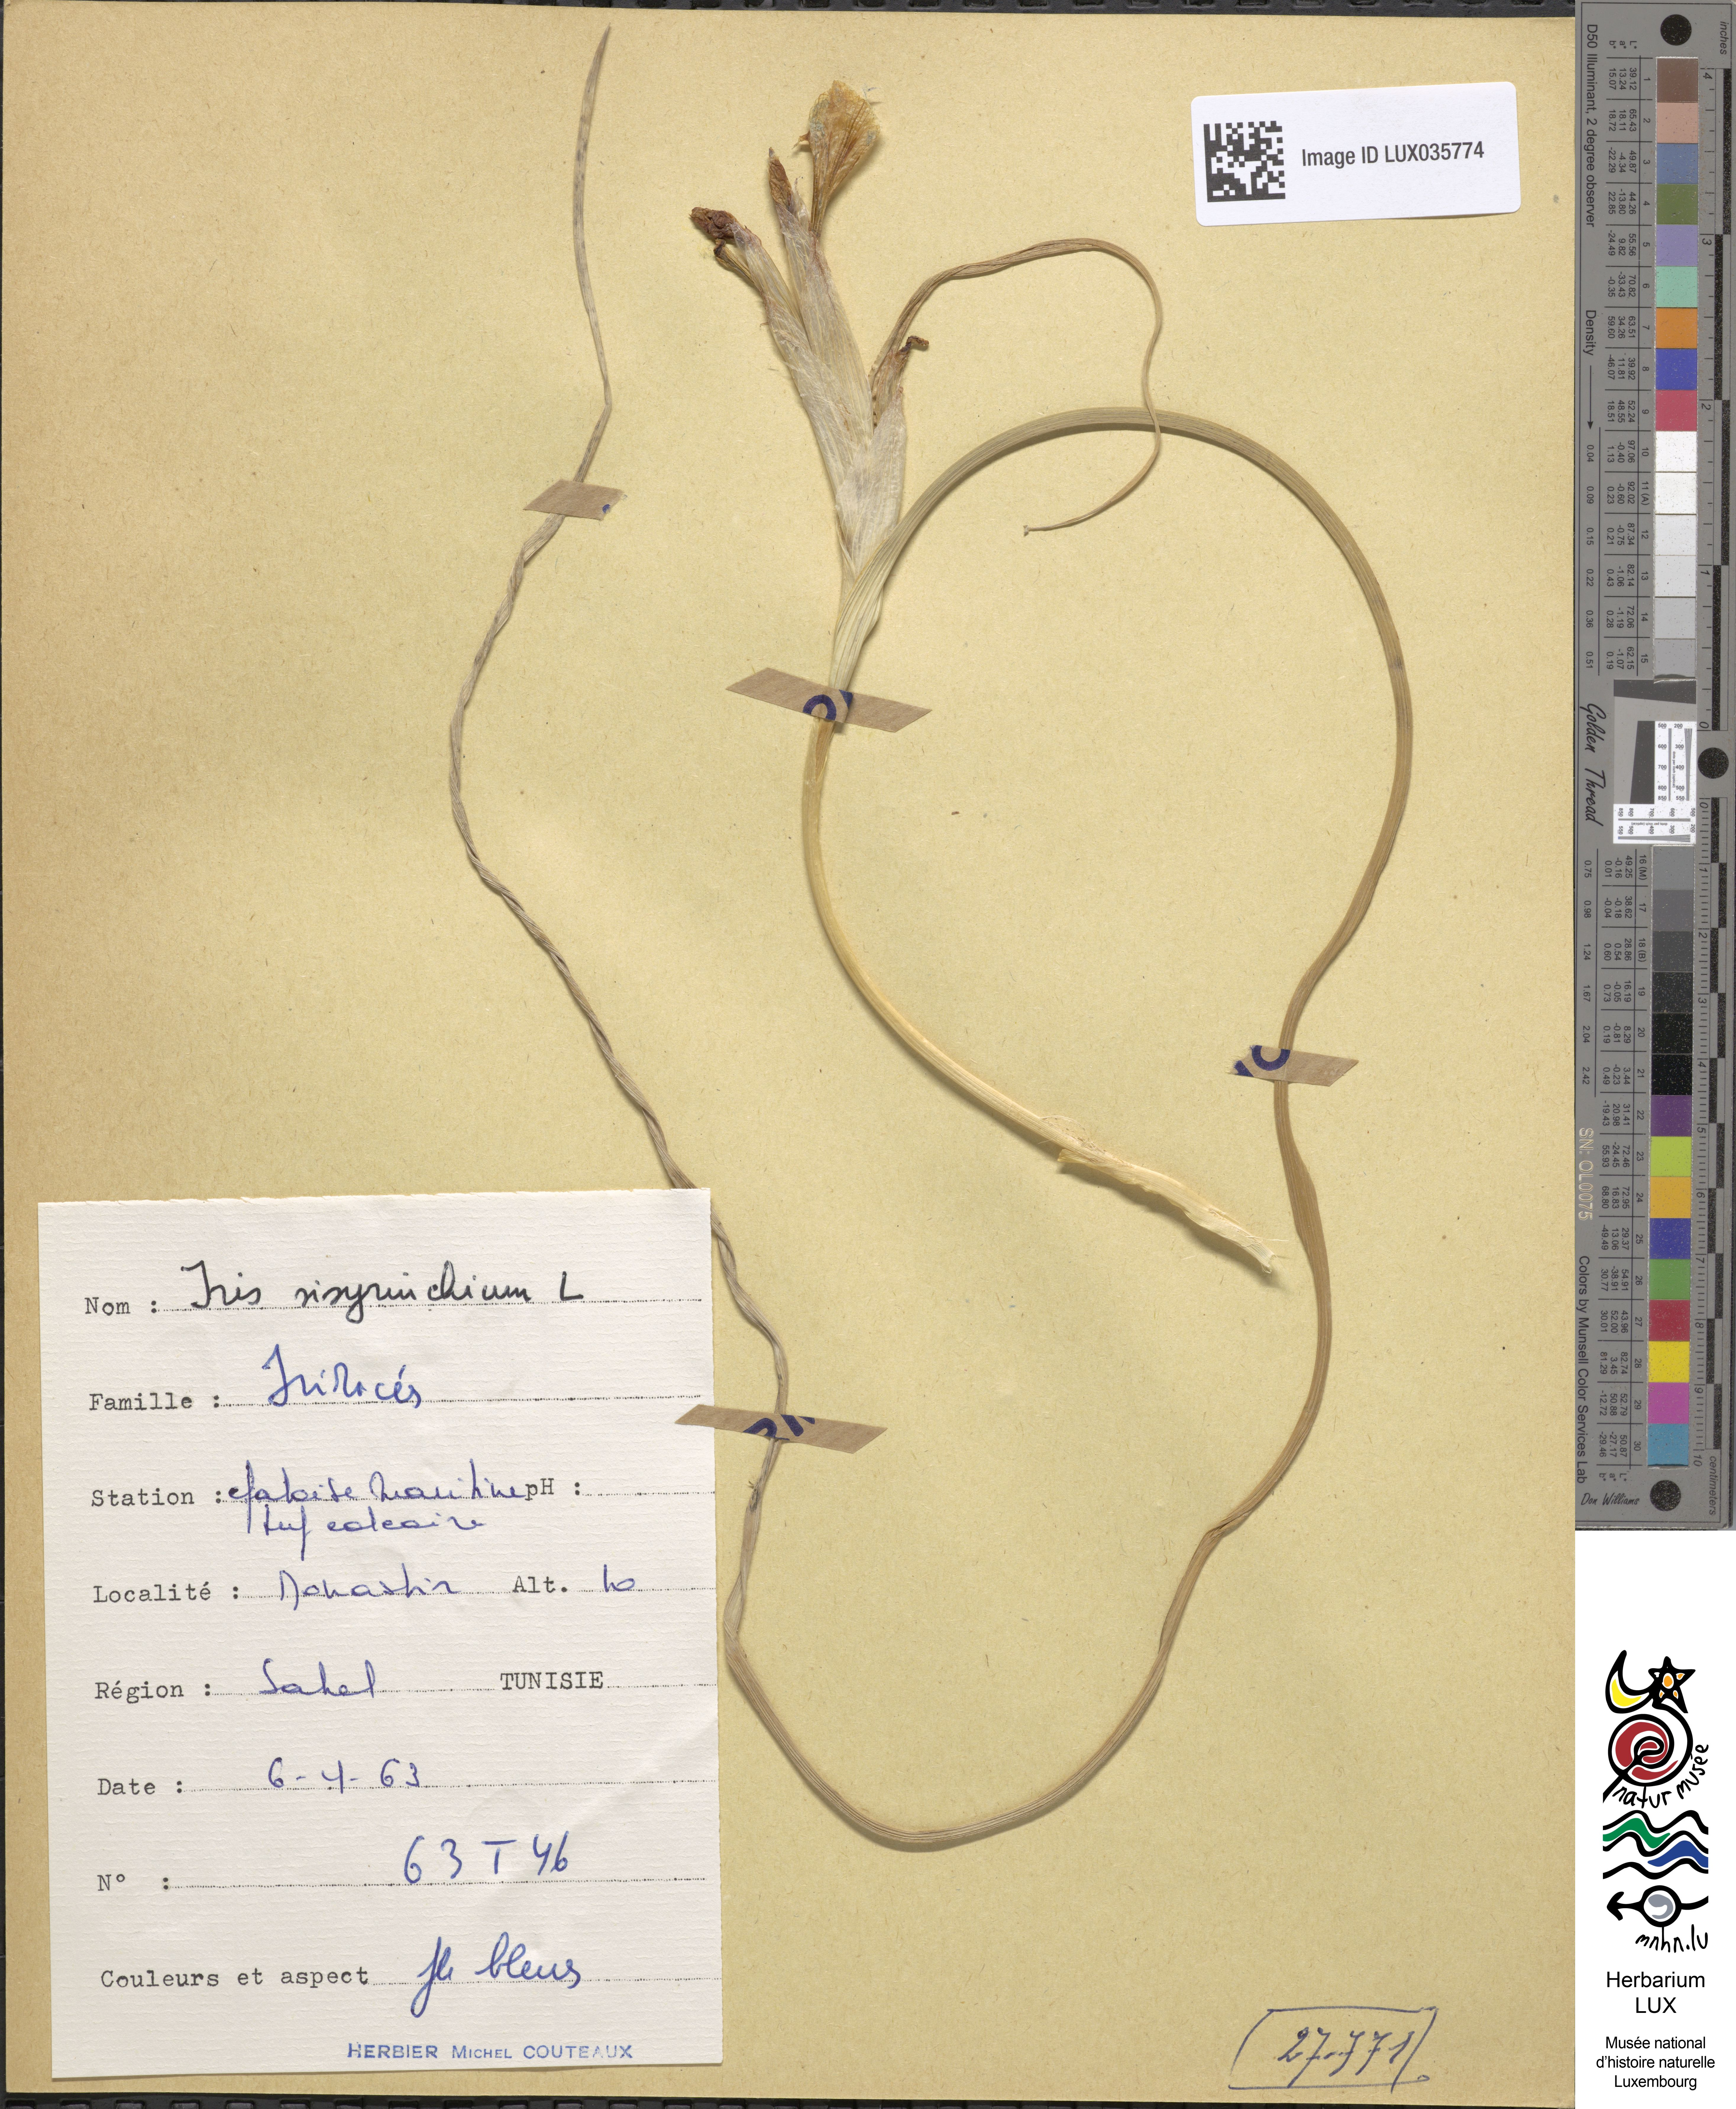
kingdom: Plantae
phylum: Tracheophyta
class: Liliopsida
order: Asparagales
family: Iridaceae
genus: Moraea
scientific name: Moraea sisyrinchium
